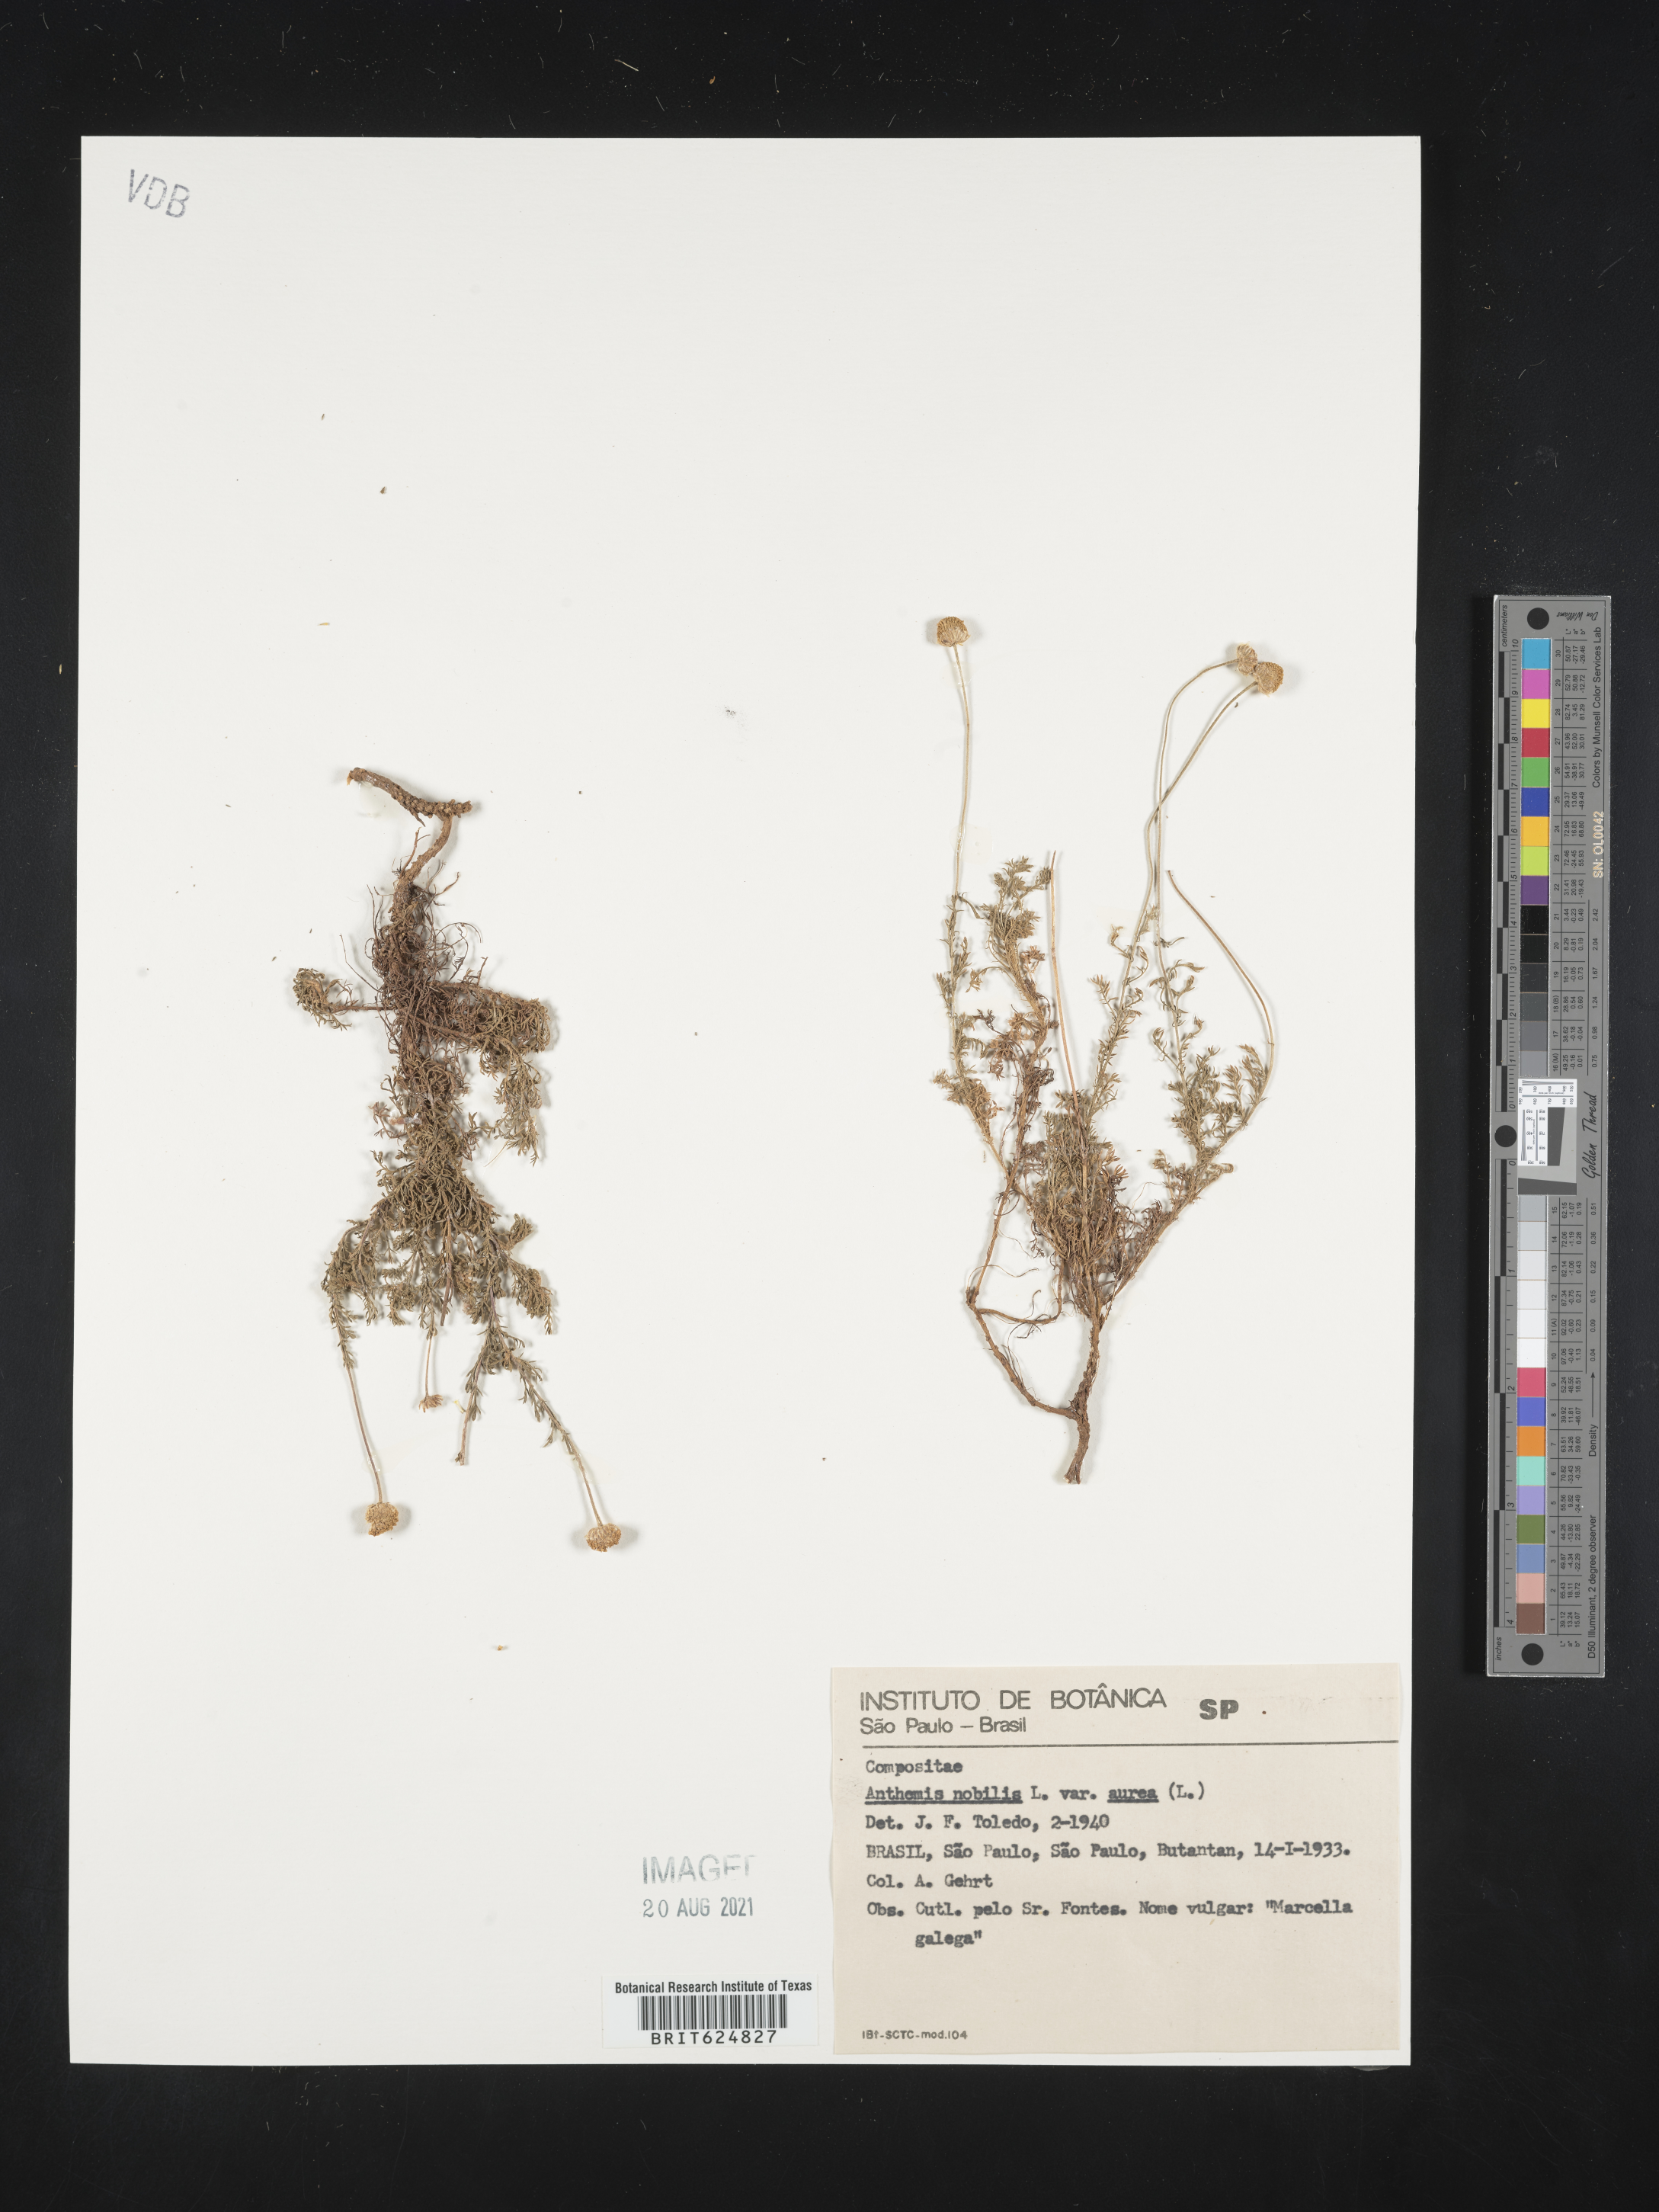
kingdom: Plantae
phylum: Tracheophyta
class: Magnoliopsida
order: Asterales
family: Asteraceae
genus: Chamaemelum
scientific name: Chamaemelum nobile
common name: Roman chamomile
